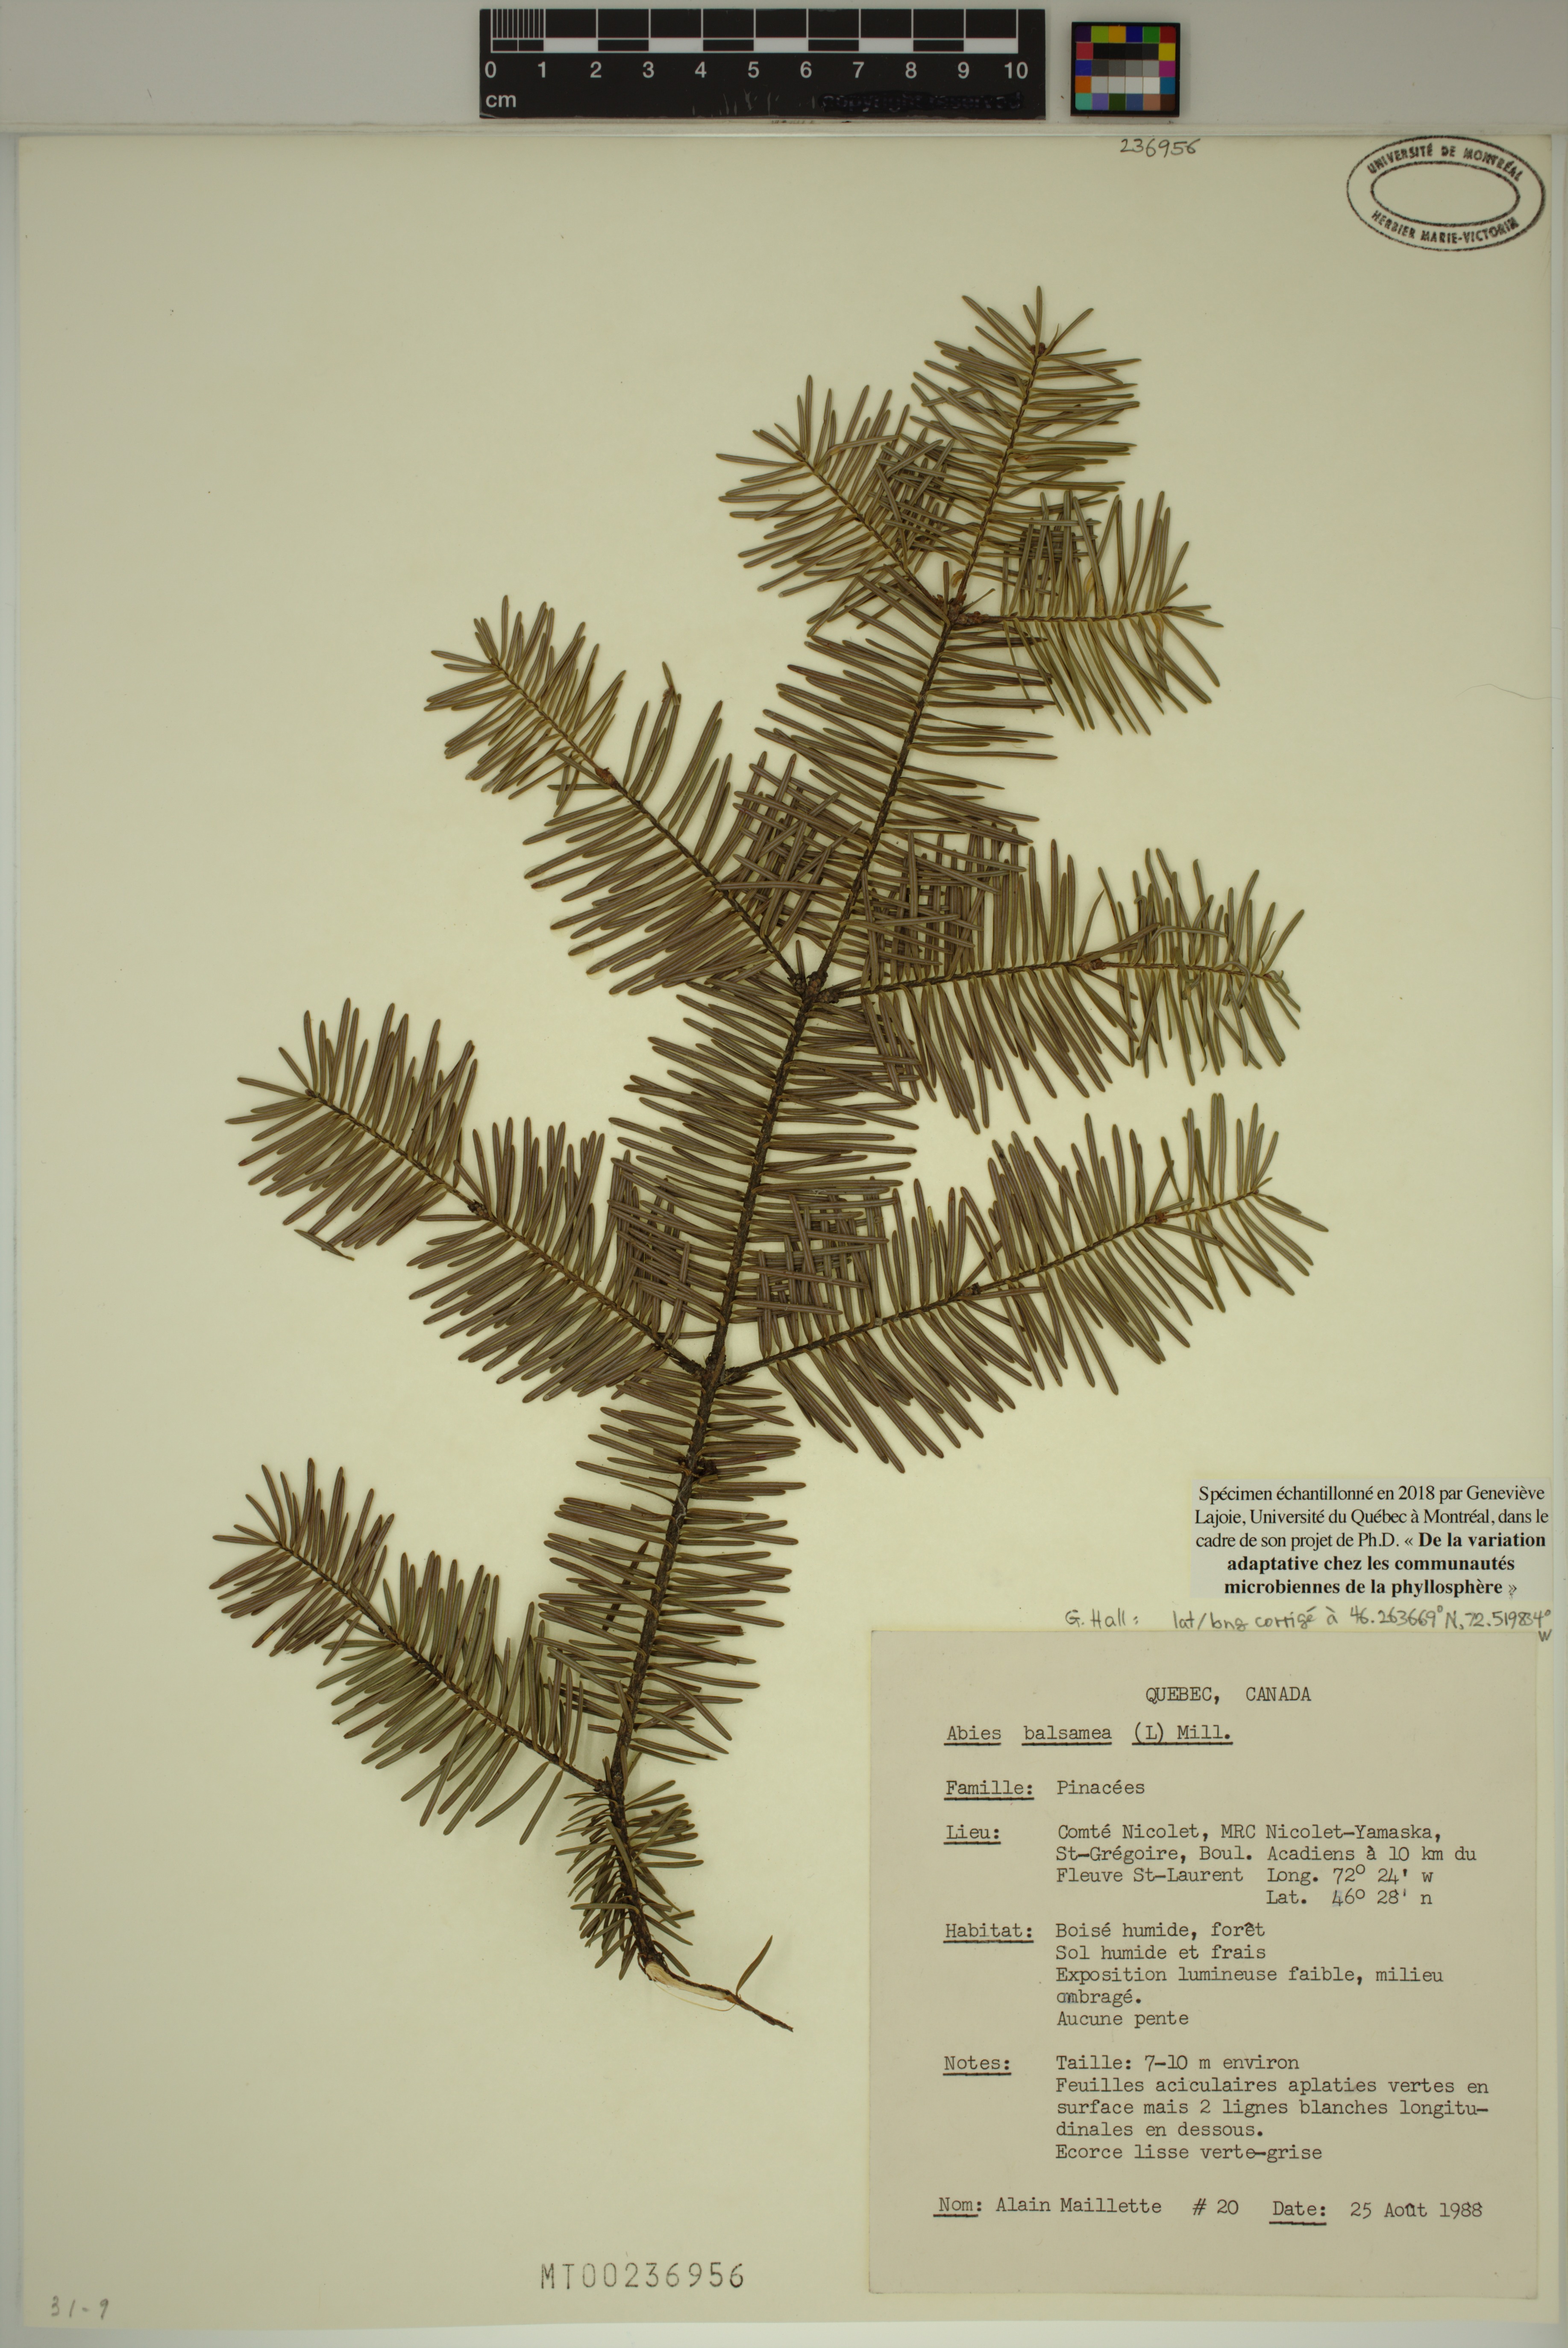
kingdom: Plantae
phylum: Tracheophyta
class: Pinopsida
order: Pinales
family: Pinaceae
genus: Abies
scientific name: Abies balsamea
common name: Balsam fir
